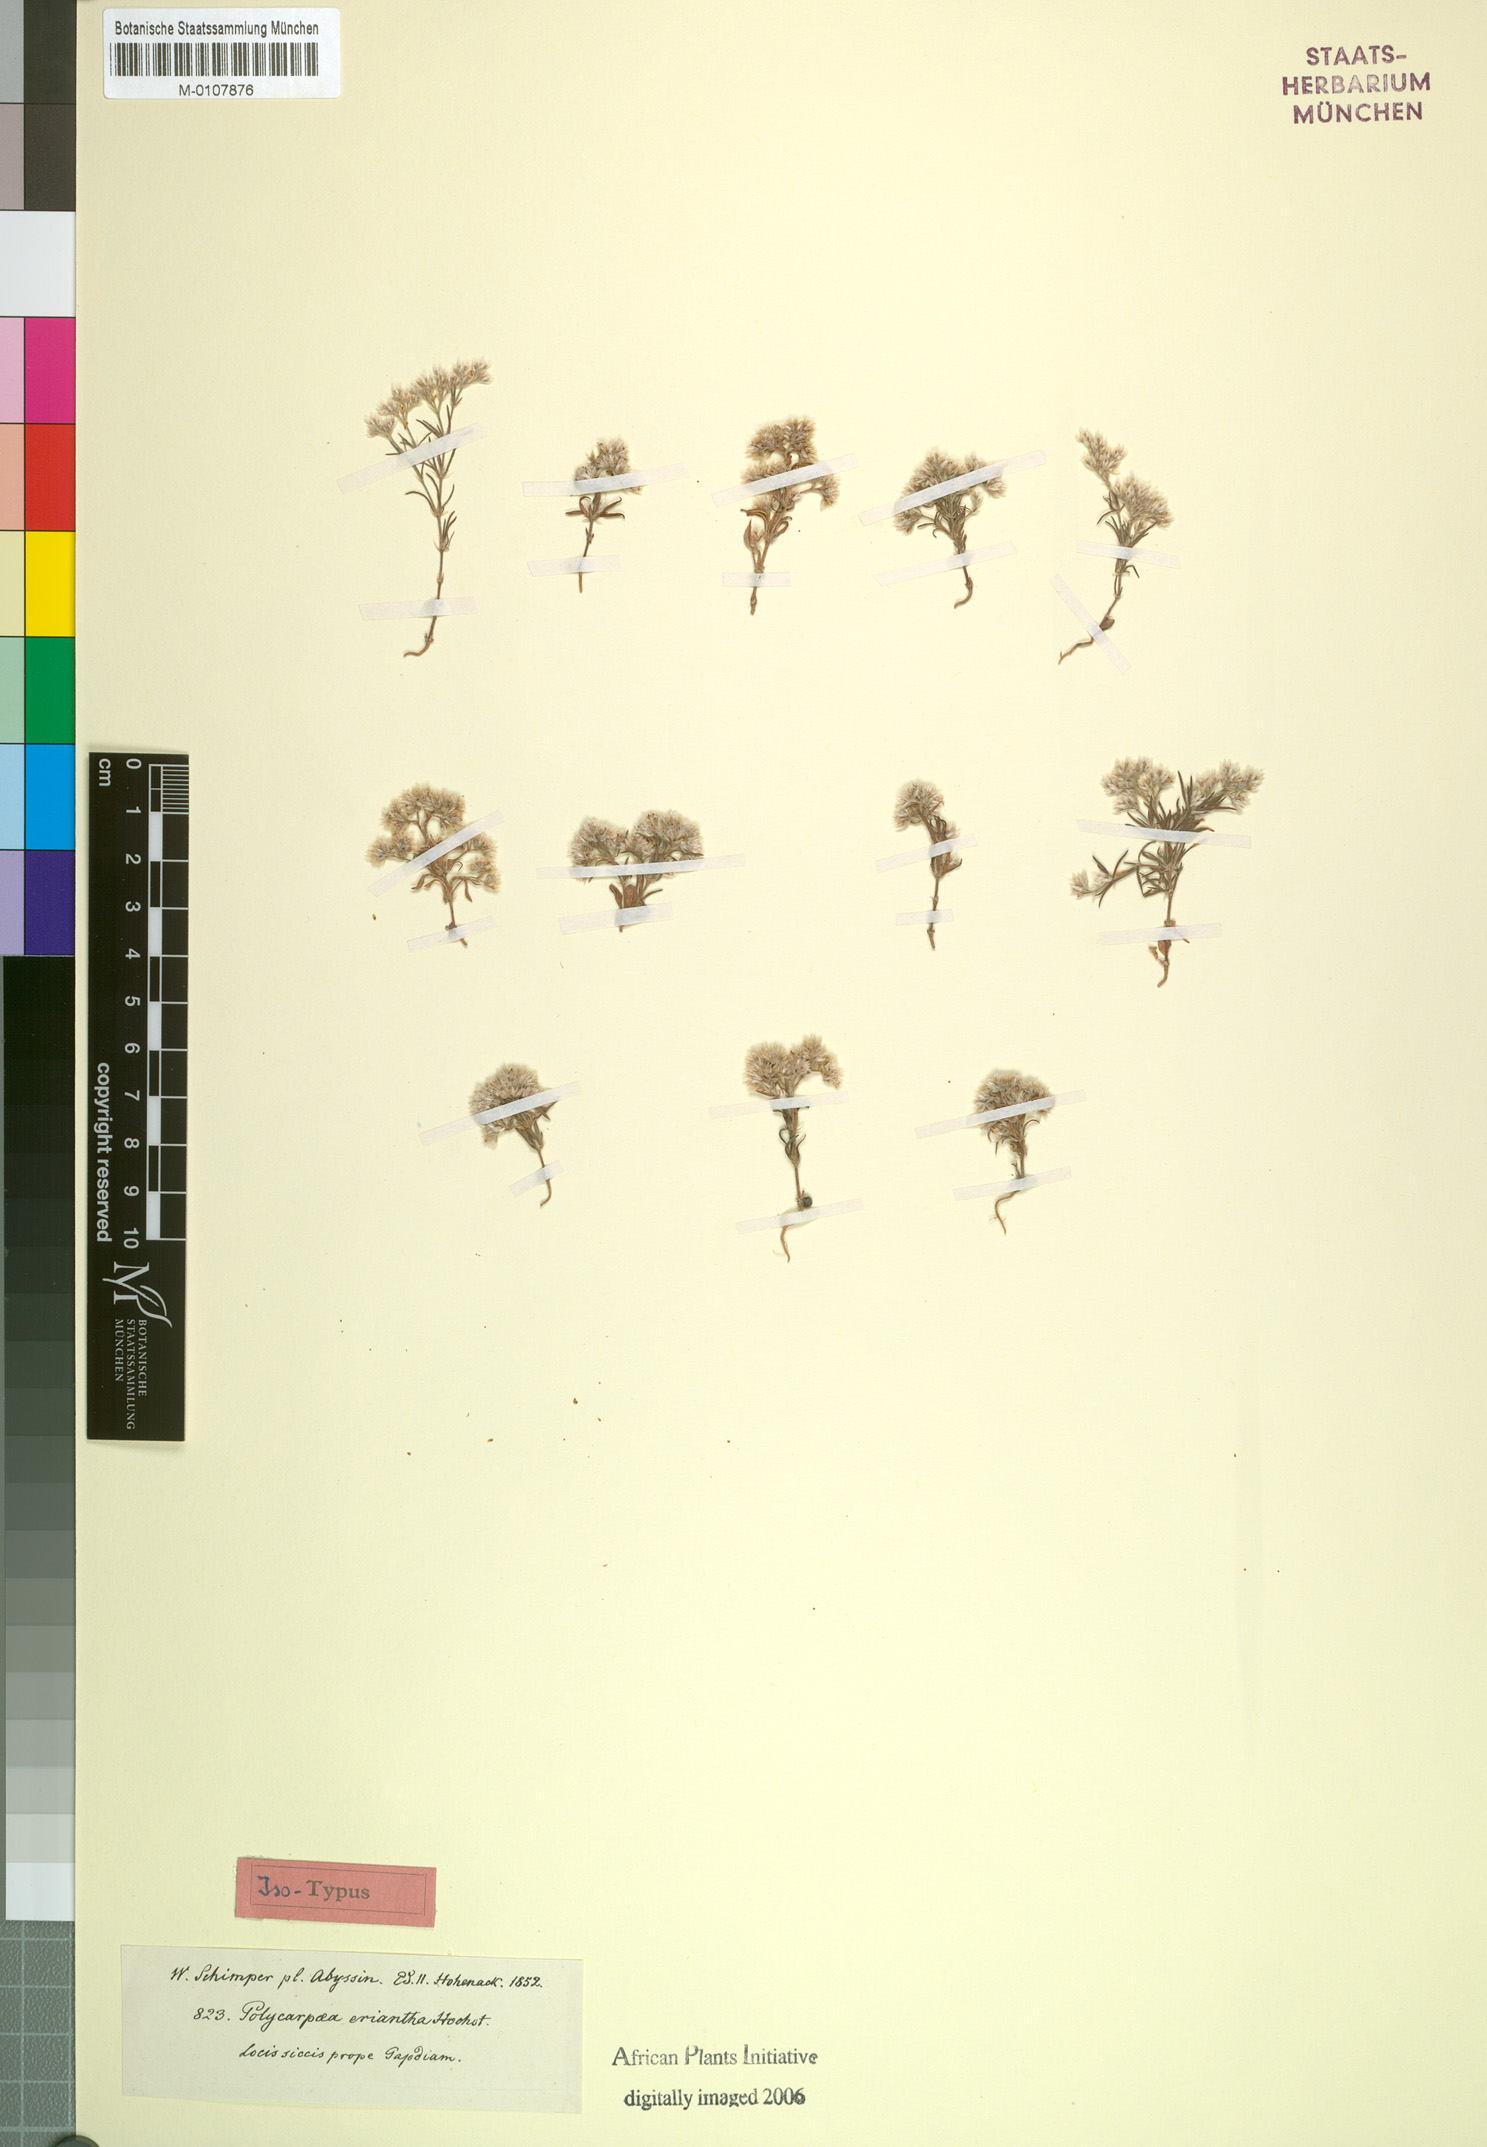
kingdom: Plantae
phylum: Tracheophyta
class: Magnoliopsida
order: Caryophyllales
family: Caryophyllaceae
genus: Polycarpaea
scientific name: Polycarpaea eriantha
